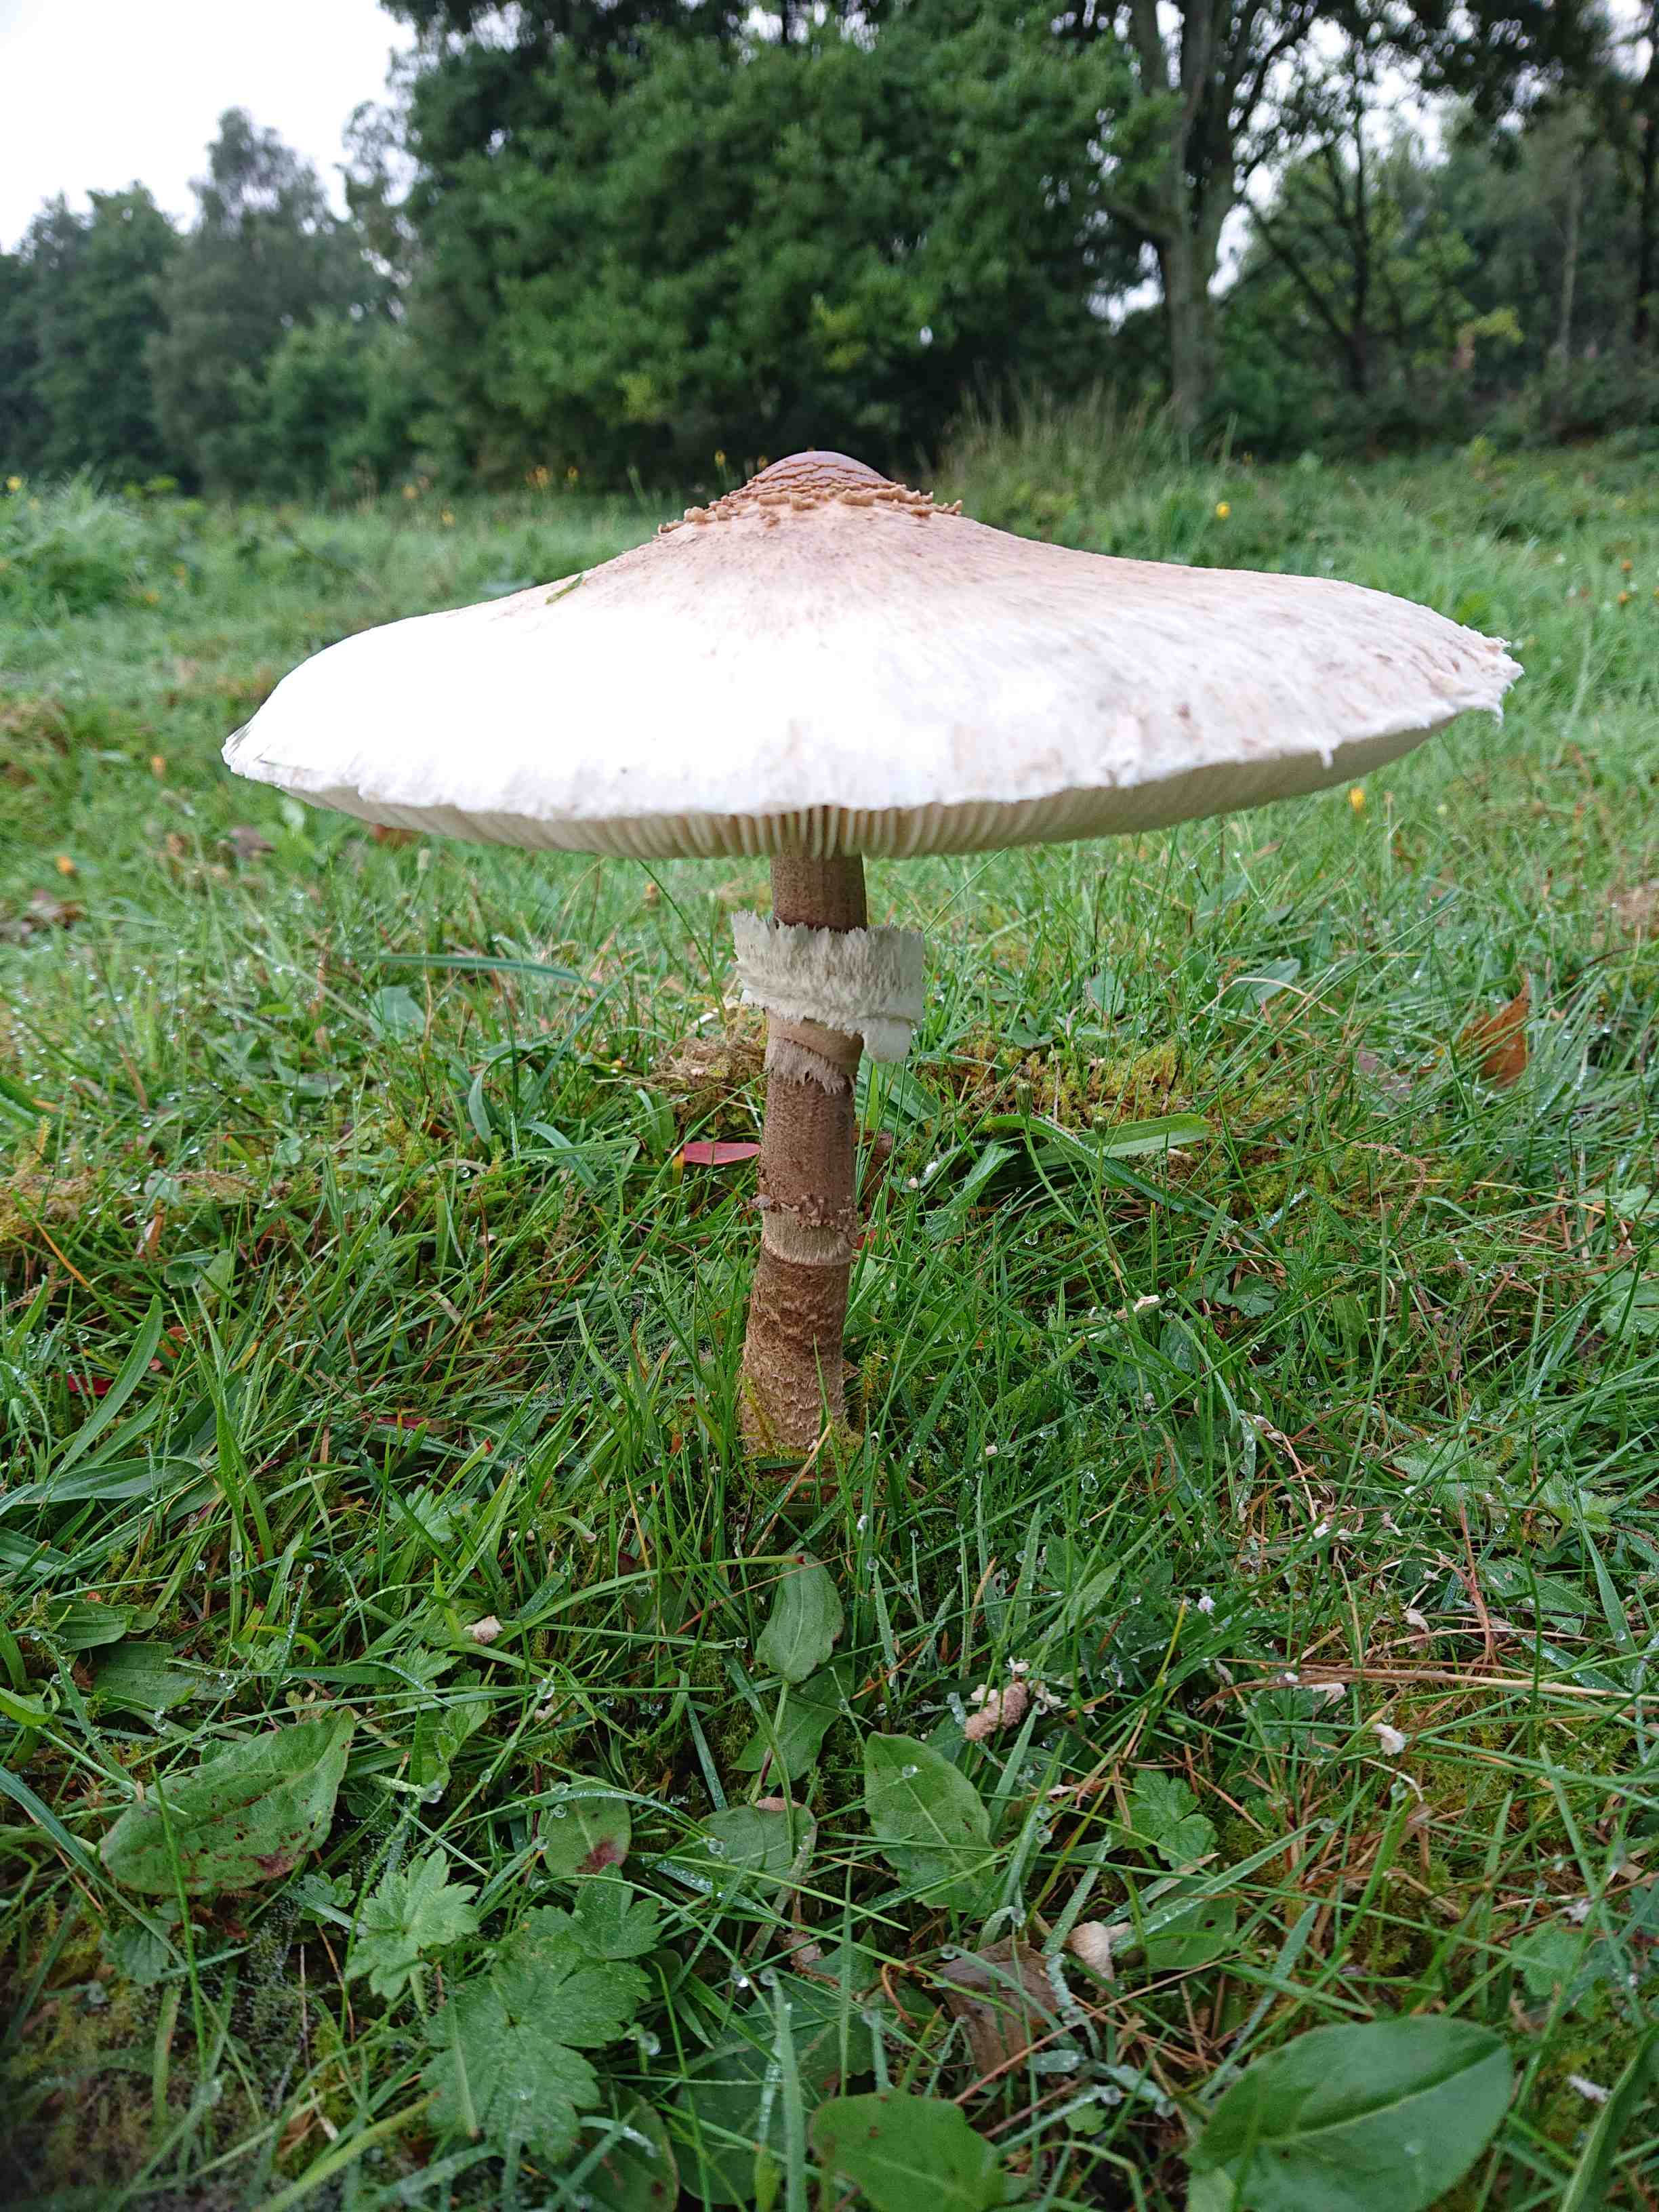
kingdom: Fungi
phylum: Basidiomycota
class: Agaricomycetes
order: Agaricales
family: Agaricaceae
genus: Macrolepiota
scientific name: Macrolepiota procera
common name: stor kæmpeparasolhat
